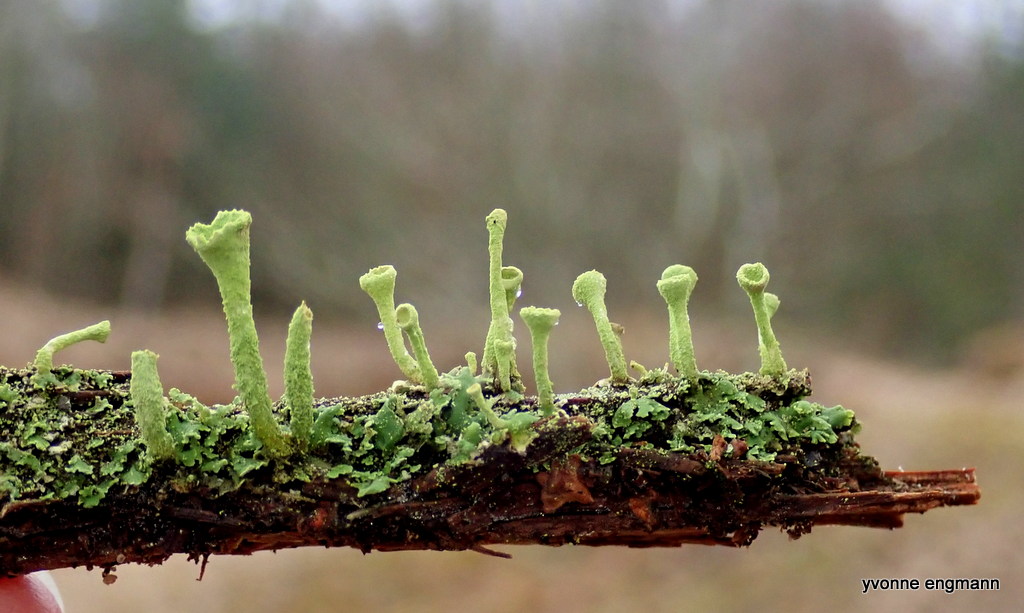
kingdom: Fungi
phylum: Ascomycota
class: Lecanoromycetes
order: Lecanorales
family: Cladoniaceae
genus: Cladonia
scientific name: Cladonia
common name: brungrøn bægerlav
